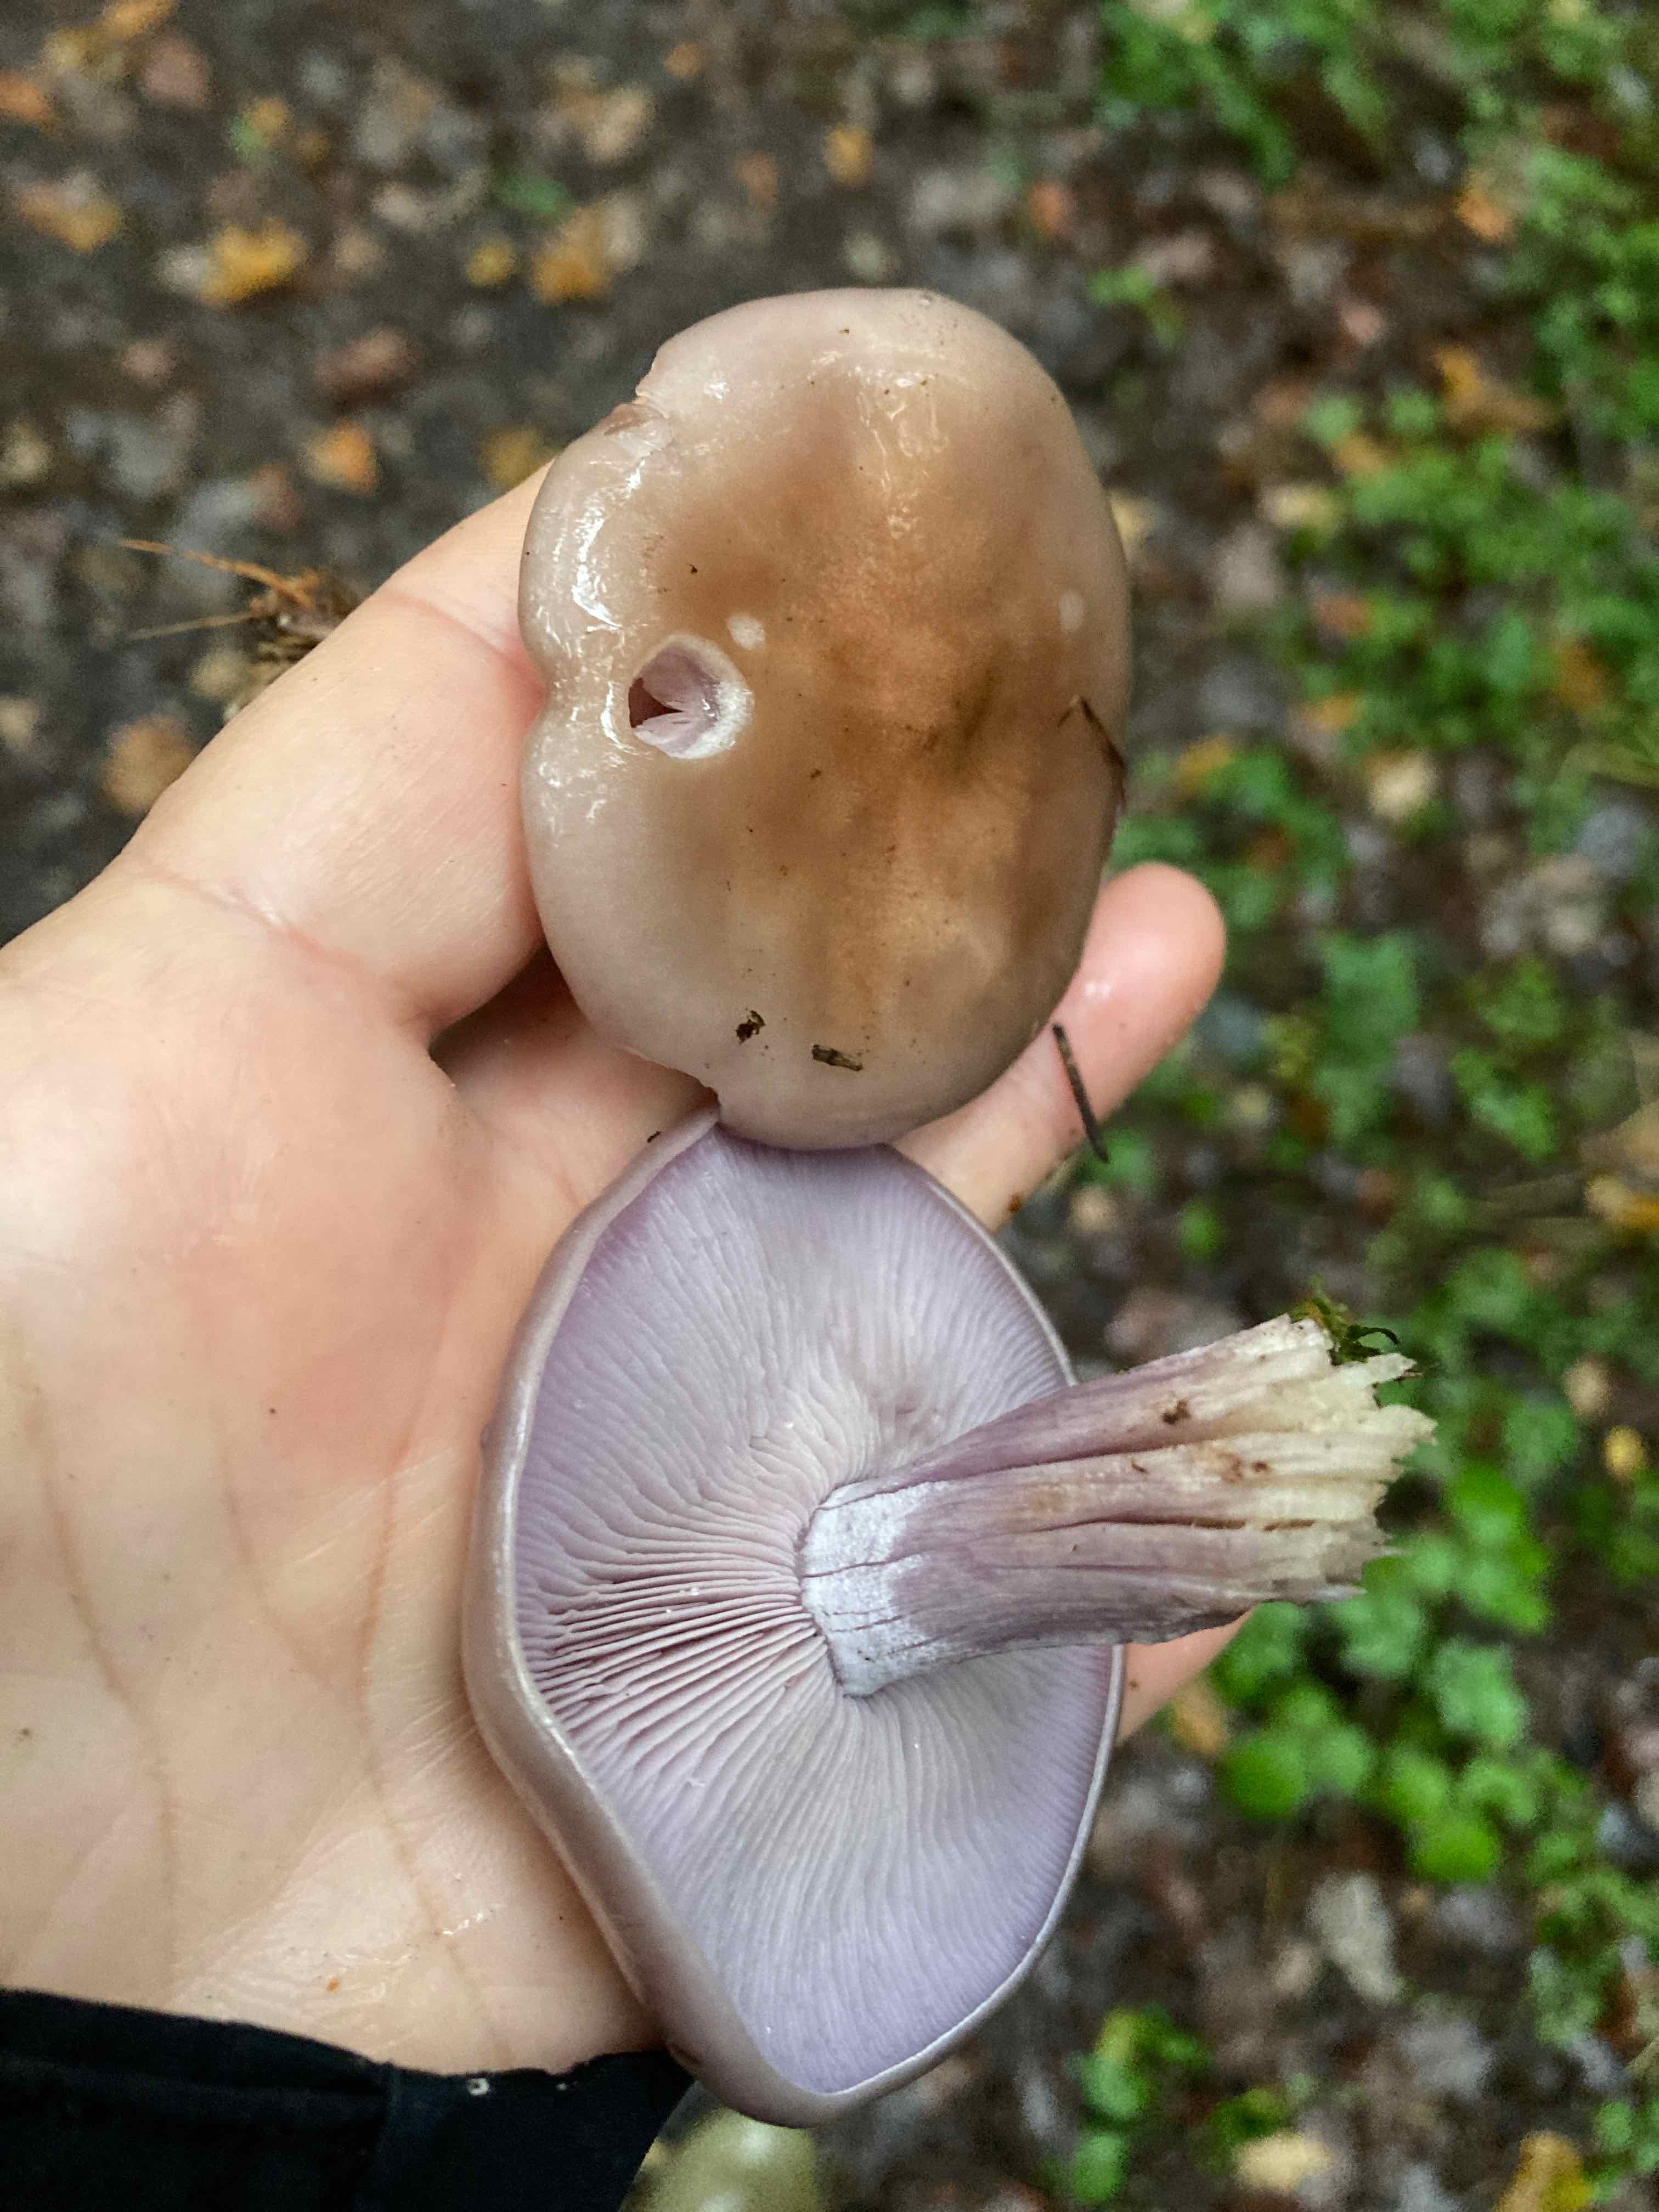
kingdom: Fungi
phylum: Basidiomycota
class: Agaricomycetes
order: Agaricales
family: Tricholomataceae
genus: Lepista
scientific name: Lepista nuda
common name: violet hekseringshat
